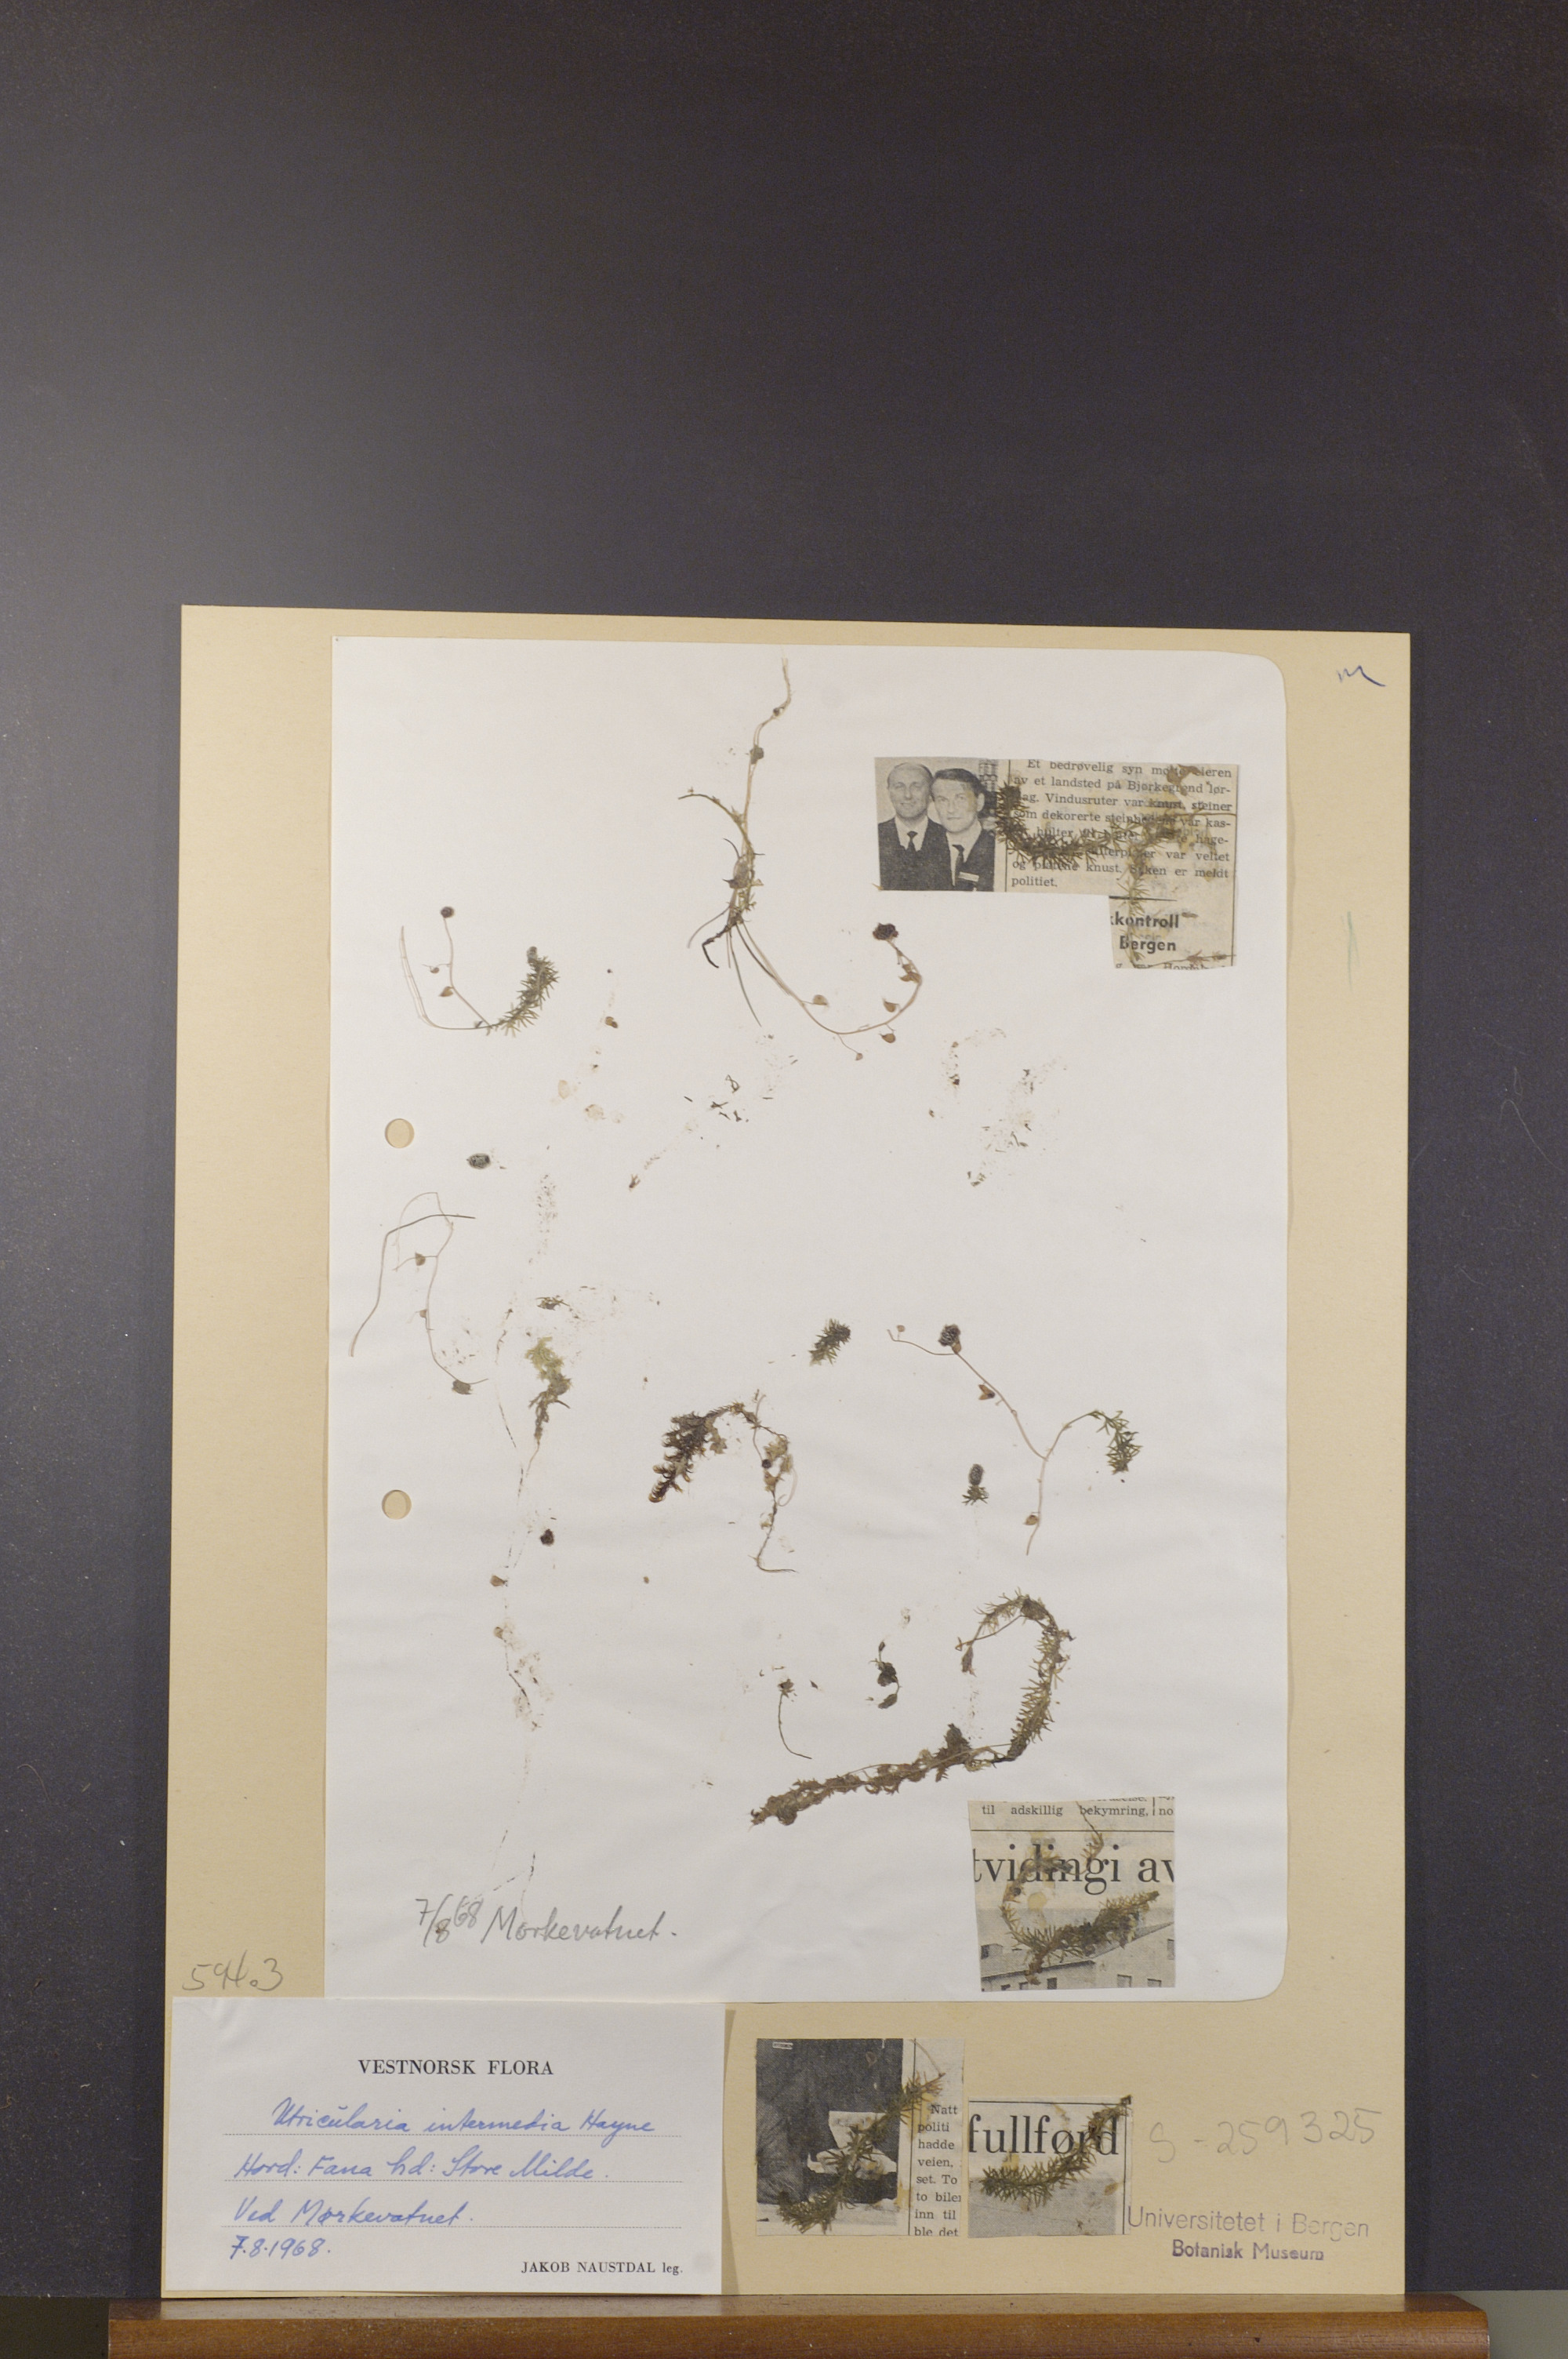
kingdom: Plantae
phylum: Tracheophyta
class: Magnoliopsida
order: Lamiales
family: Lentibulariaceae
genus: Utricularia
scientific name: Utricularia intermedia
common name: Intermediate bladderwort
